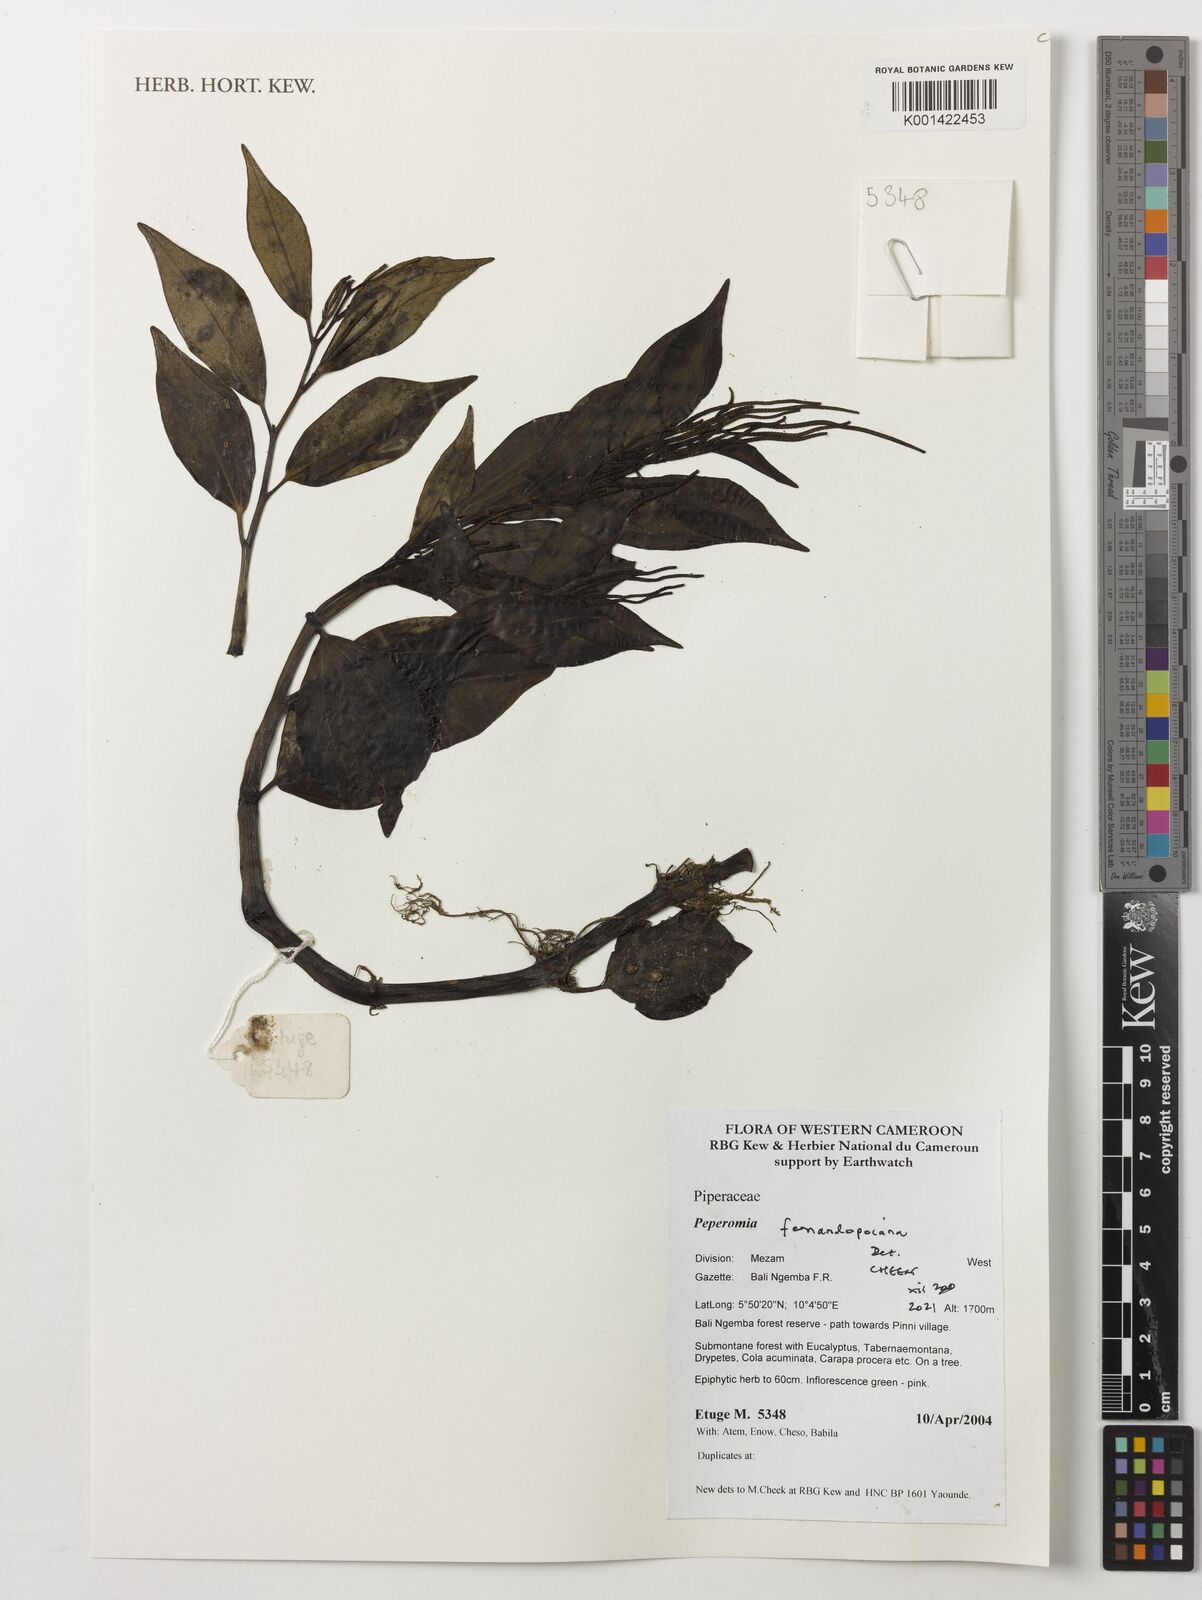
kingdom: Plantae
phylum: Tracheophyta
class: Magnoliopsida
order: Piperales
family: Piperaceae
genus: Peperomia
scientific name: Peperomia fernandeziana
